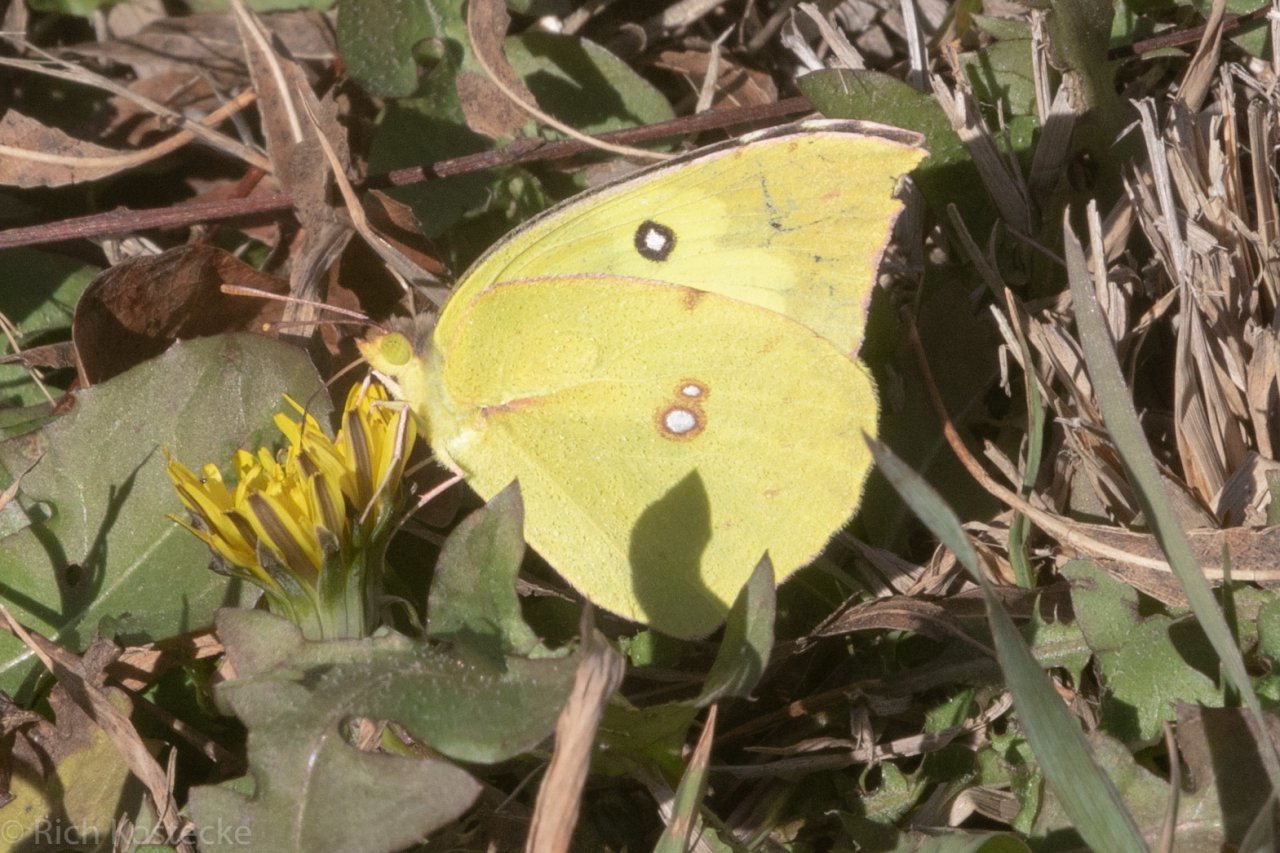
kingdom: Animalia
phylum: Arthropoda
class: Insecta
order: Lepidoptera
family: Pieridae
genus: Zerene
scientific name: Zerene cesonia
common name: Southern Dogface
